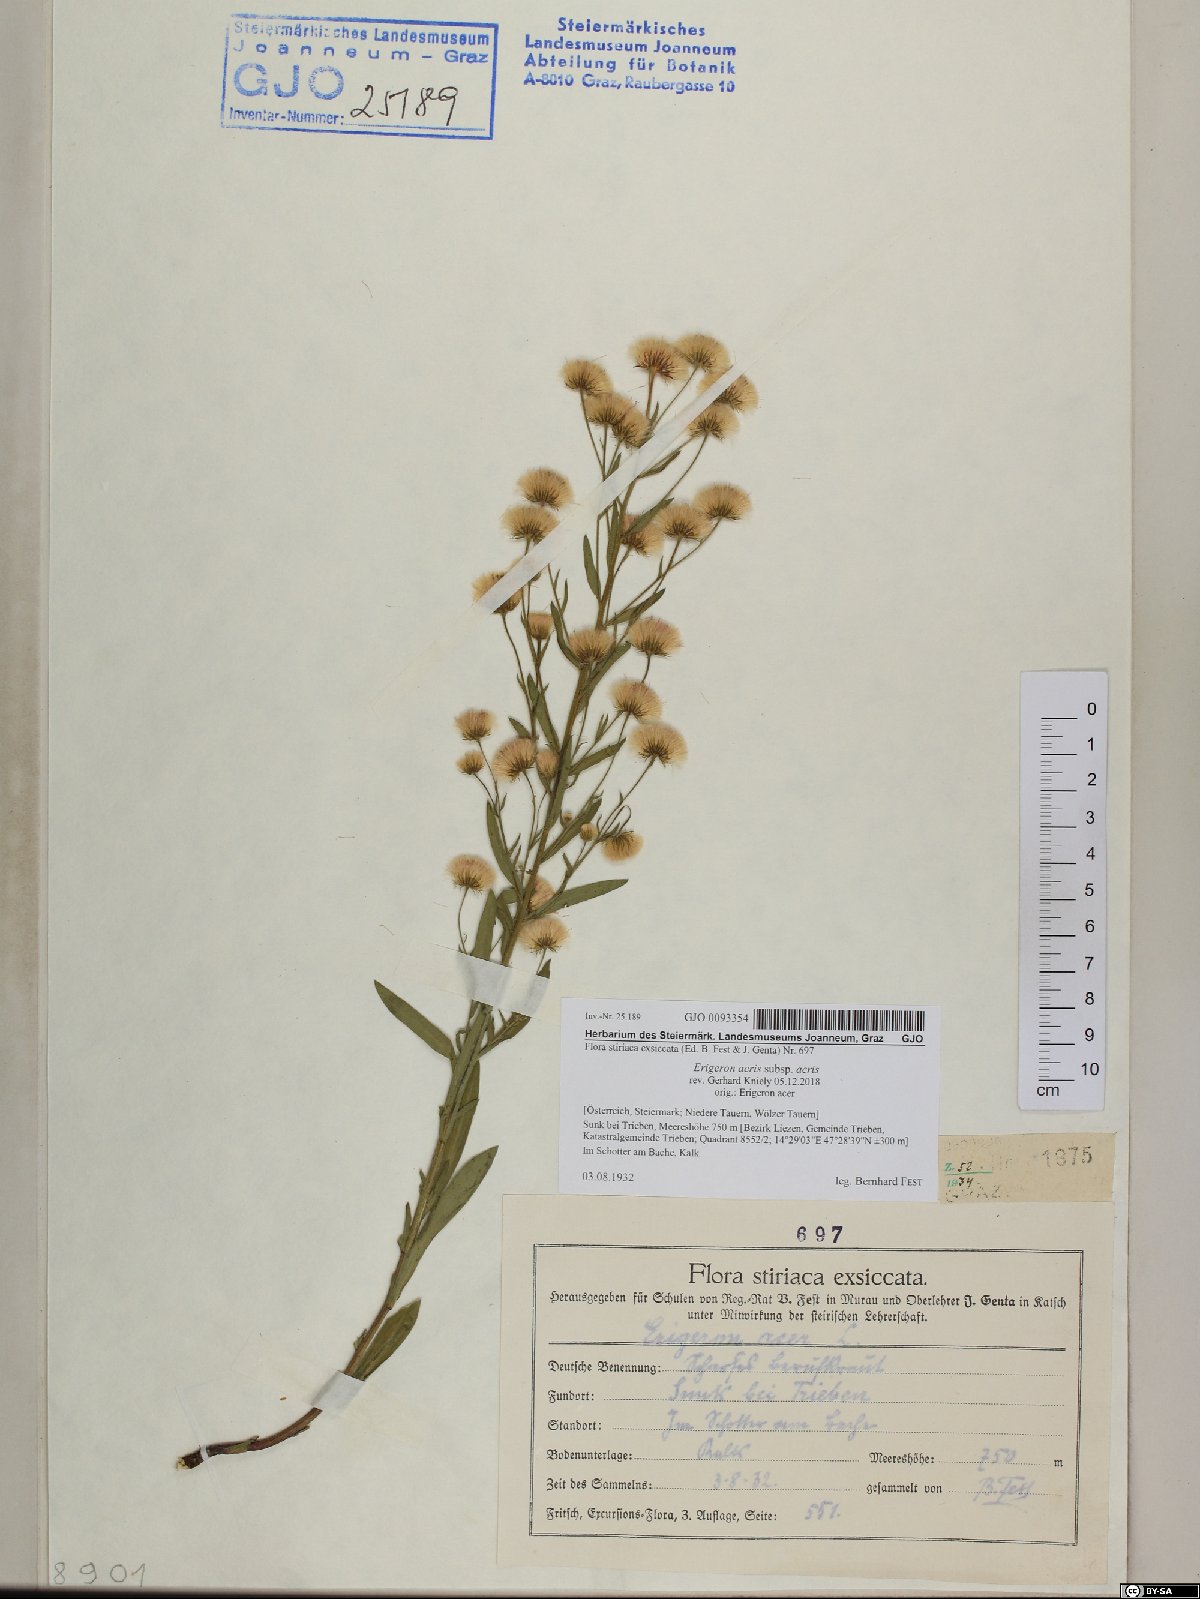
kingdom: Plantae
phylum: Tracheophyta
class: Magnoliopsida
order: Asterales
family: Asteraceae
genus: Erigeron
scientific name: Erigeron acris
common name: Blue fleabane
